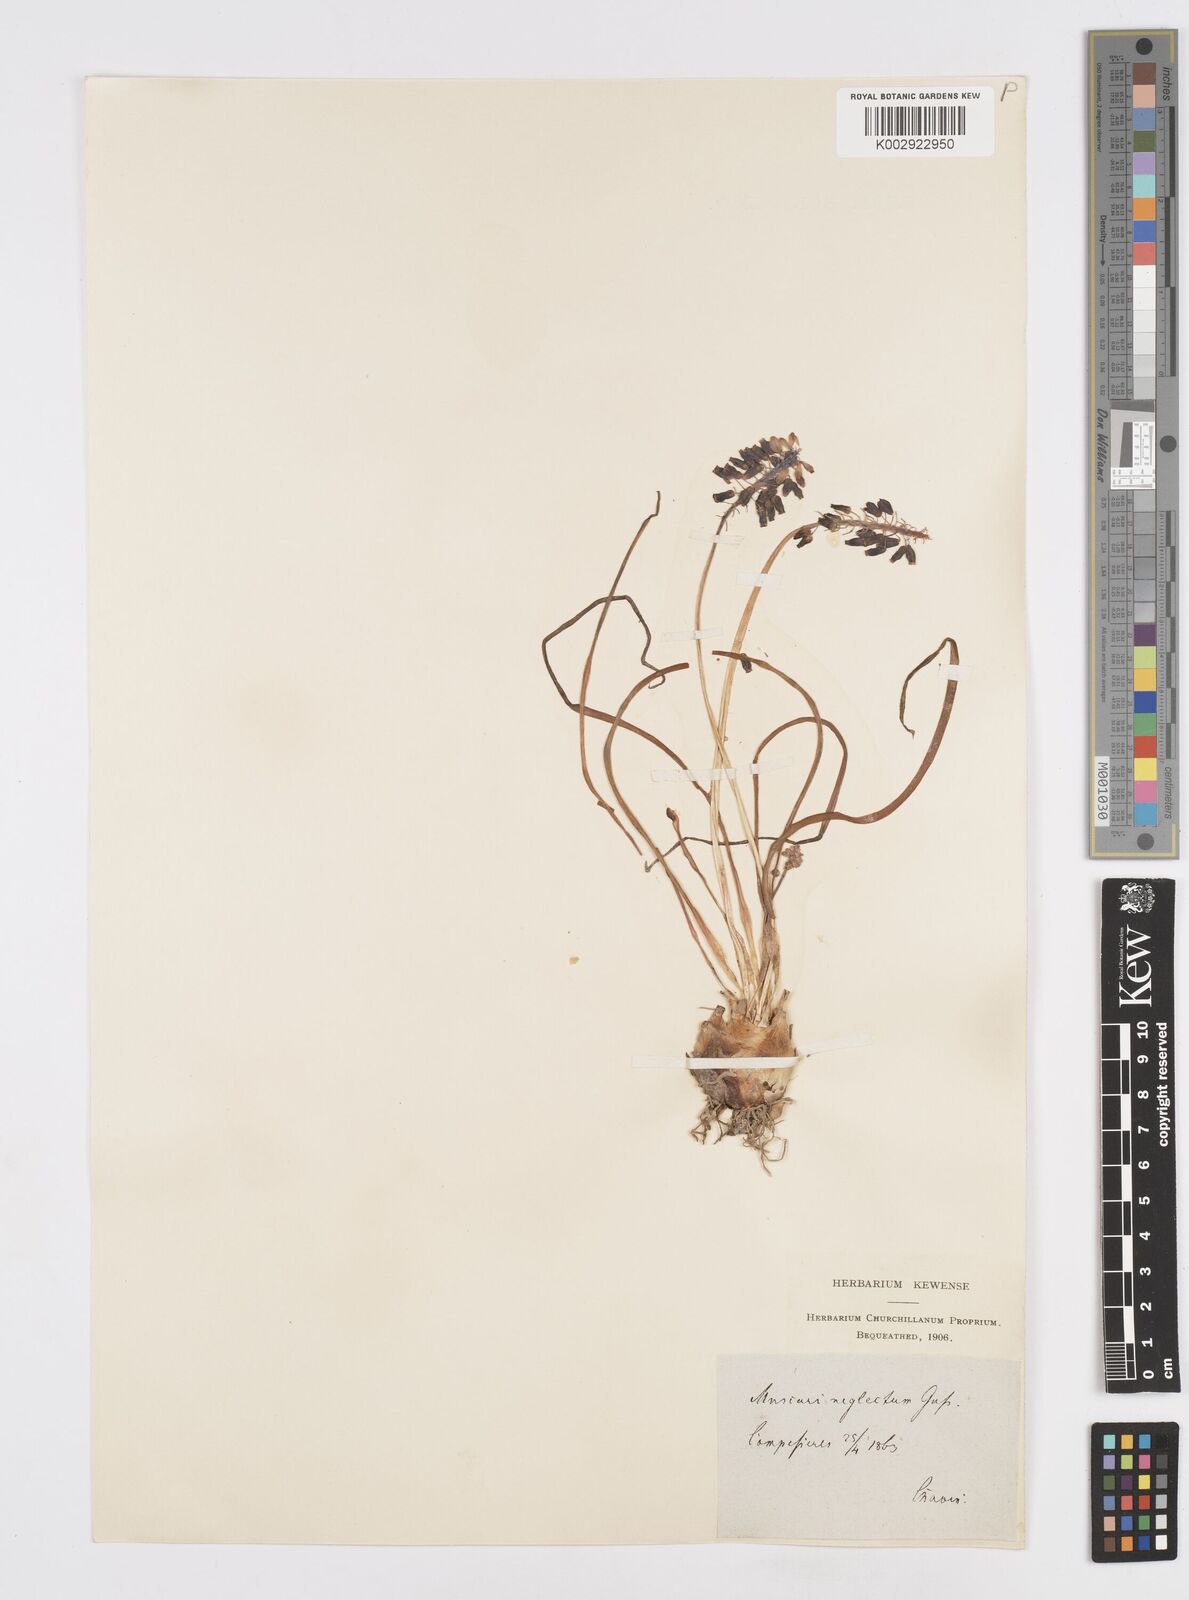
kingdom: Plantae
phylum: Tracheophyta
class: Liliopsida
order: Asparagales
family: Asparagaceae
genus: Muscari
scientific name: Muscari neglectum
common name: Grape-hyacinth
